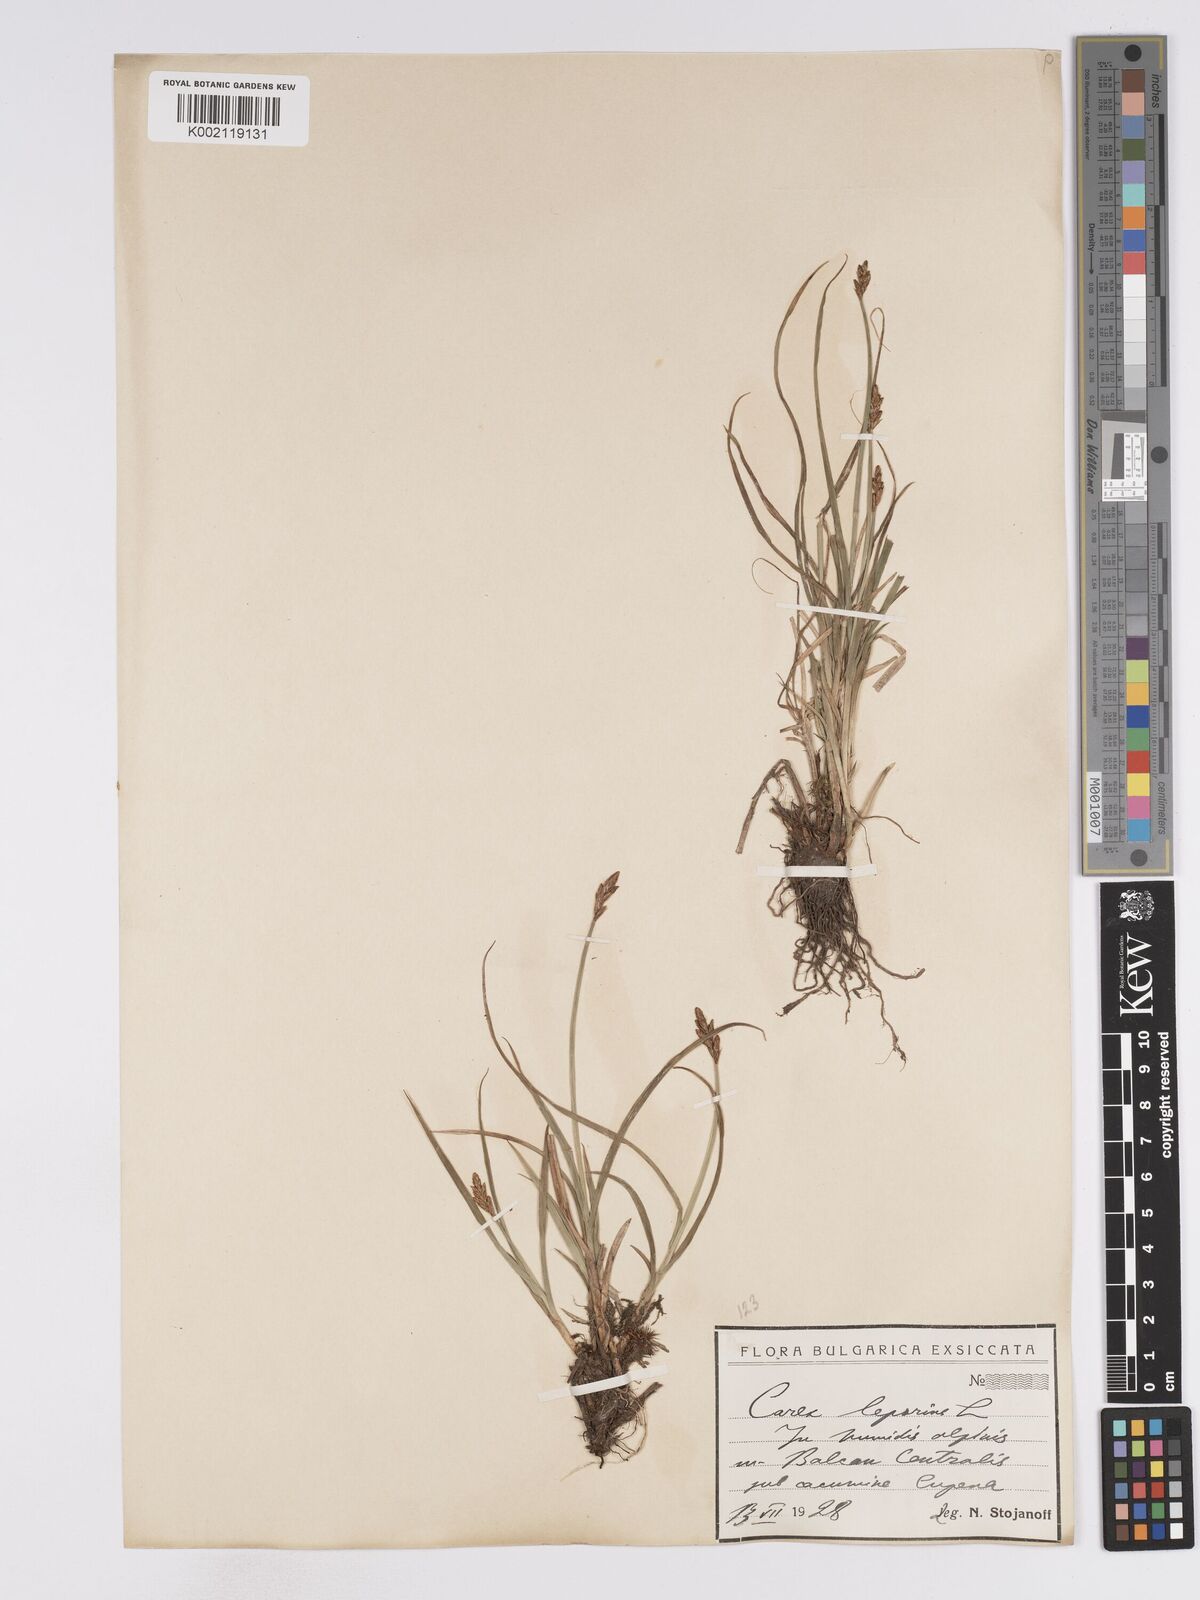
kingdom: Plantae
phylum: Tracheophyta
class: Liliopsida
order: Poales
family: Cyperaceae
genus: Carex
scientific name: Carex leporina
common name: Oval sedge
